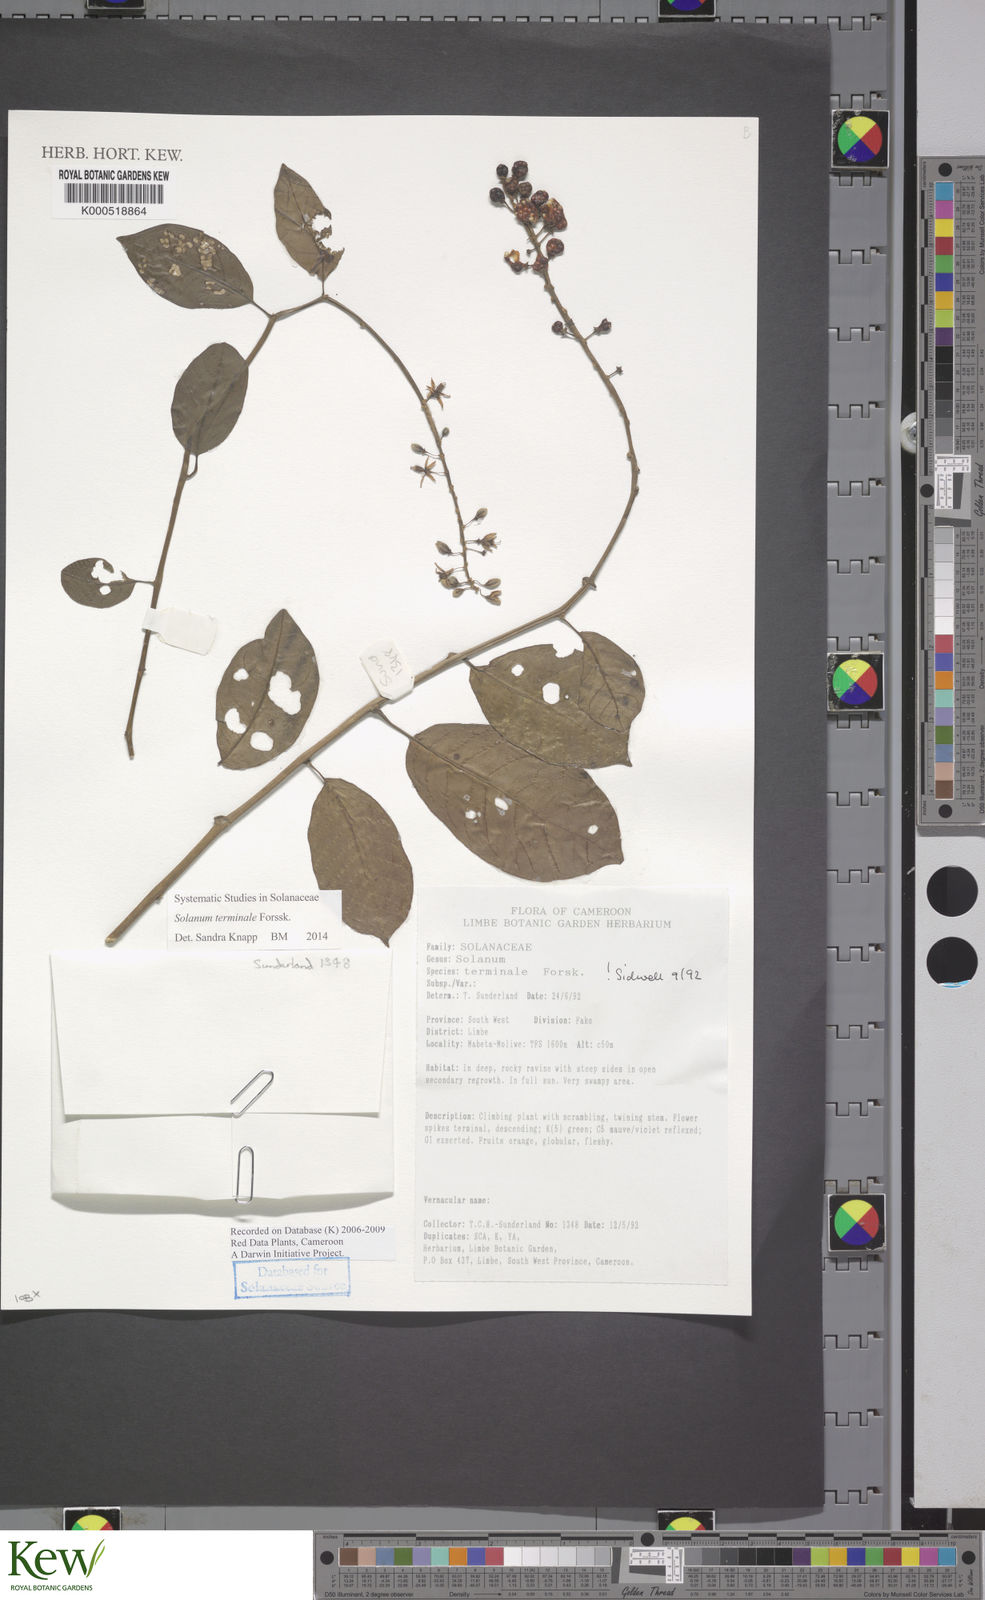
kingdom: Plantae
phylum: Tracheophyta
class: Magnoliopsida
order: Solanales
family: Solanaceae
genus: Solanum
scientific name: Solanum terminale
